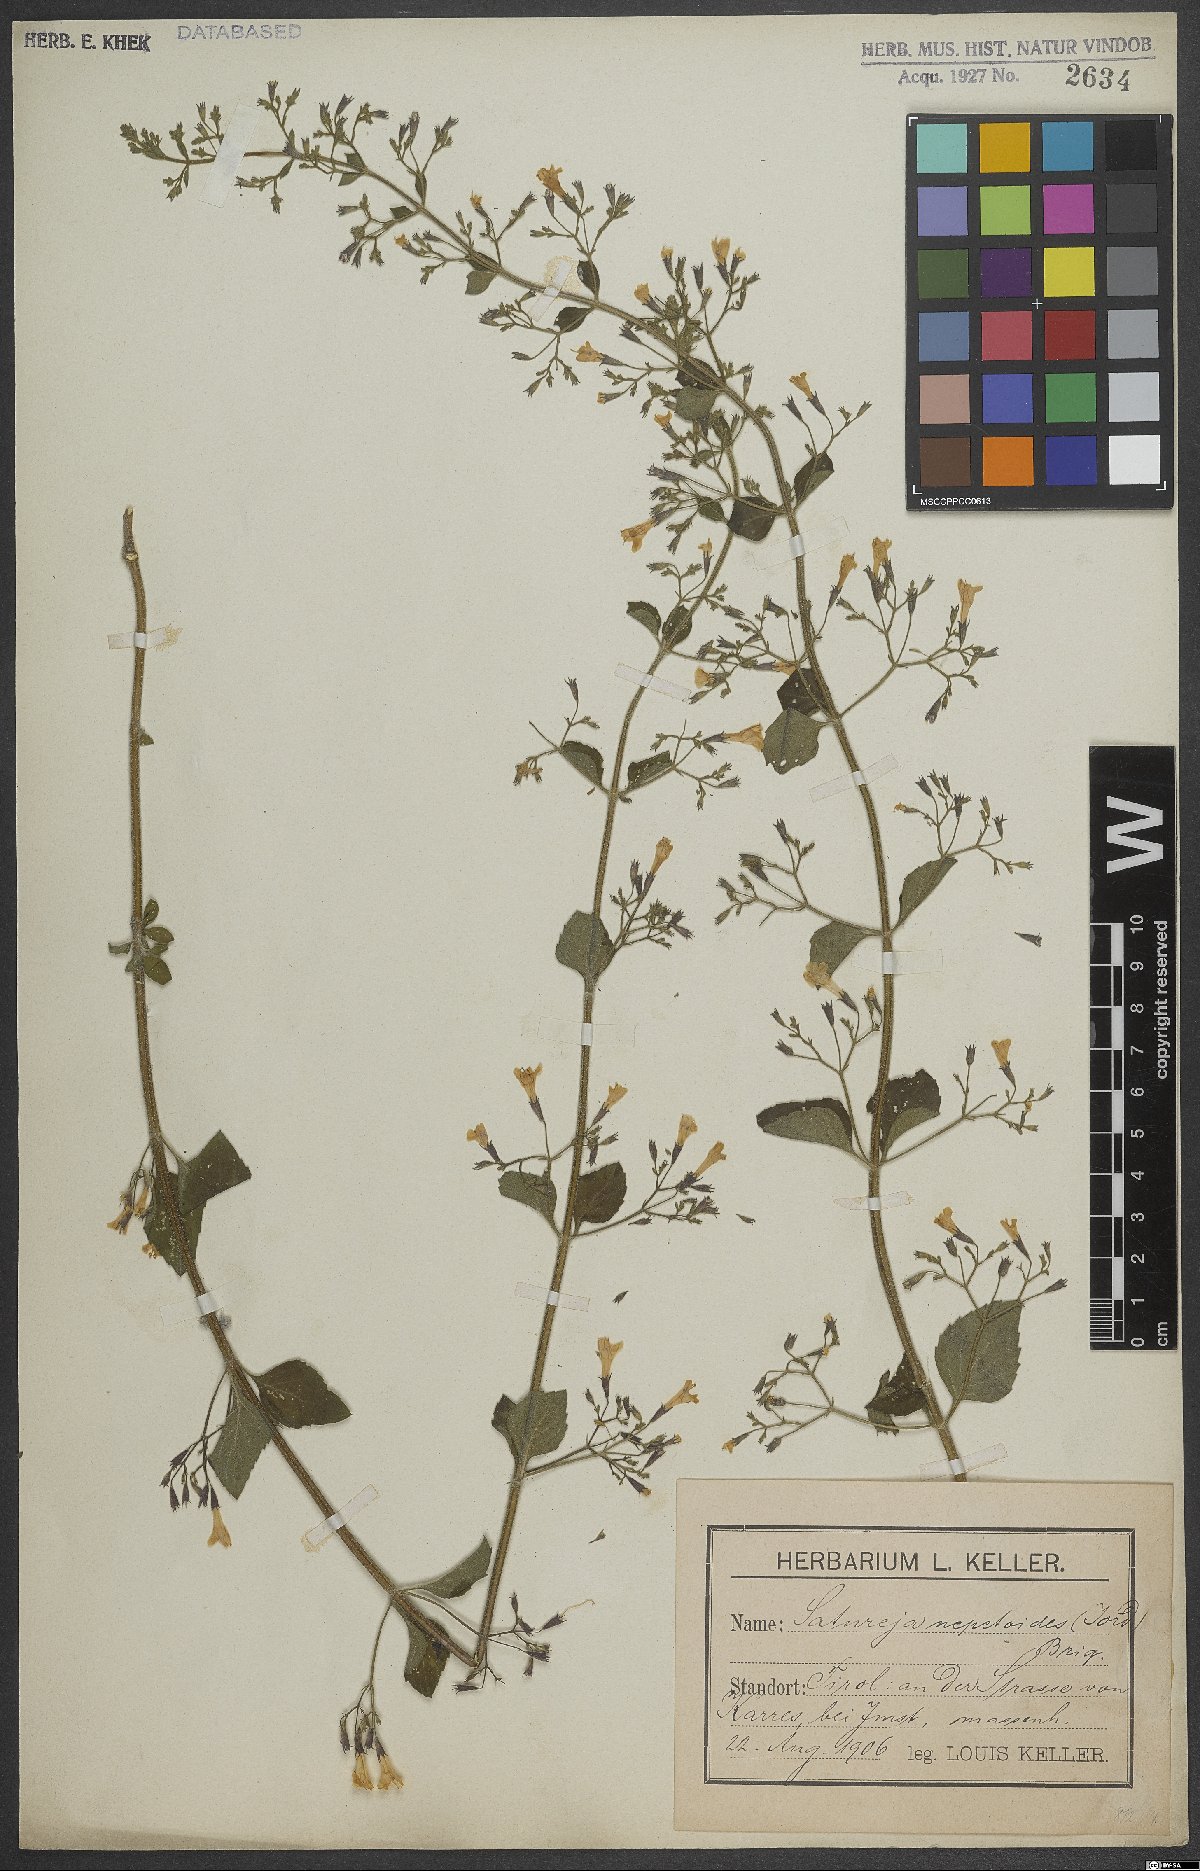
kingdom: Plantae
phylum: Tracheophyta
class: Magnoliopsida
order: Lamiales
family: Lamiaceae
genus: Clinopodium
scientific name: Clinopodium nepeta
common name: Lesser calamint
